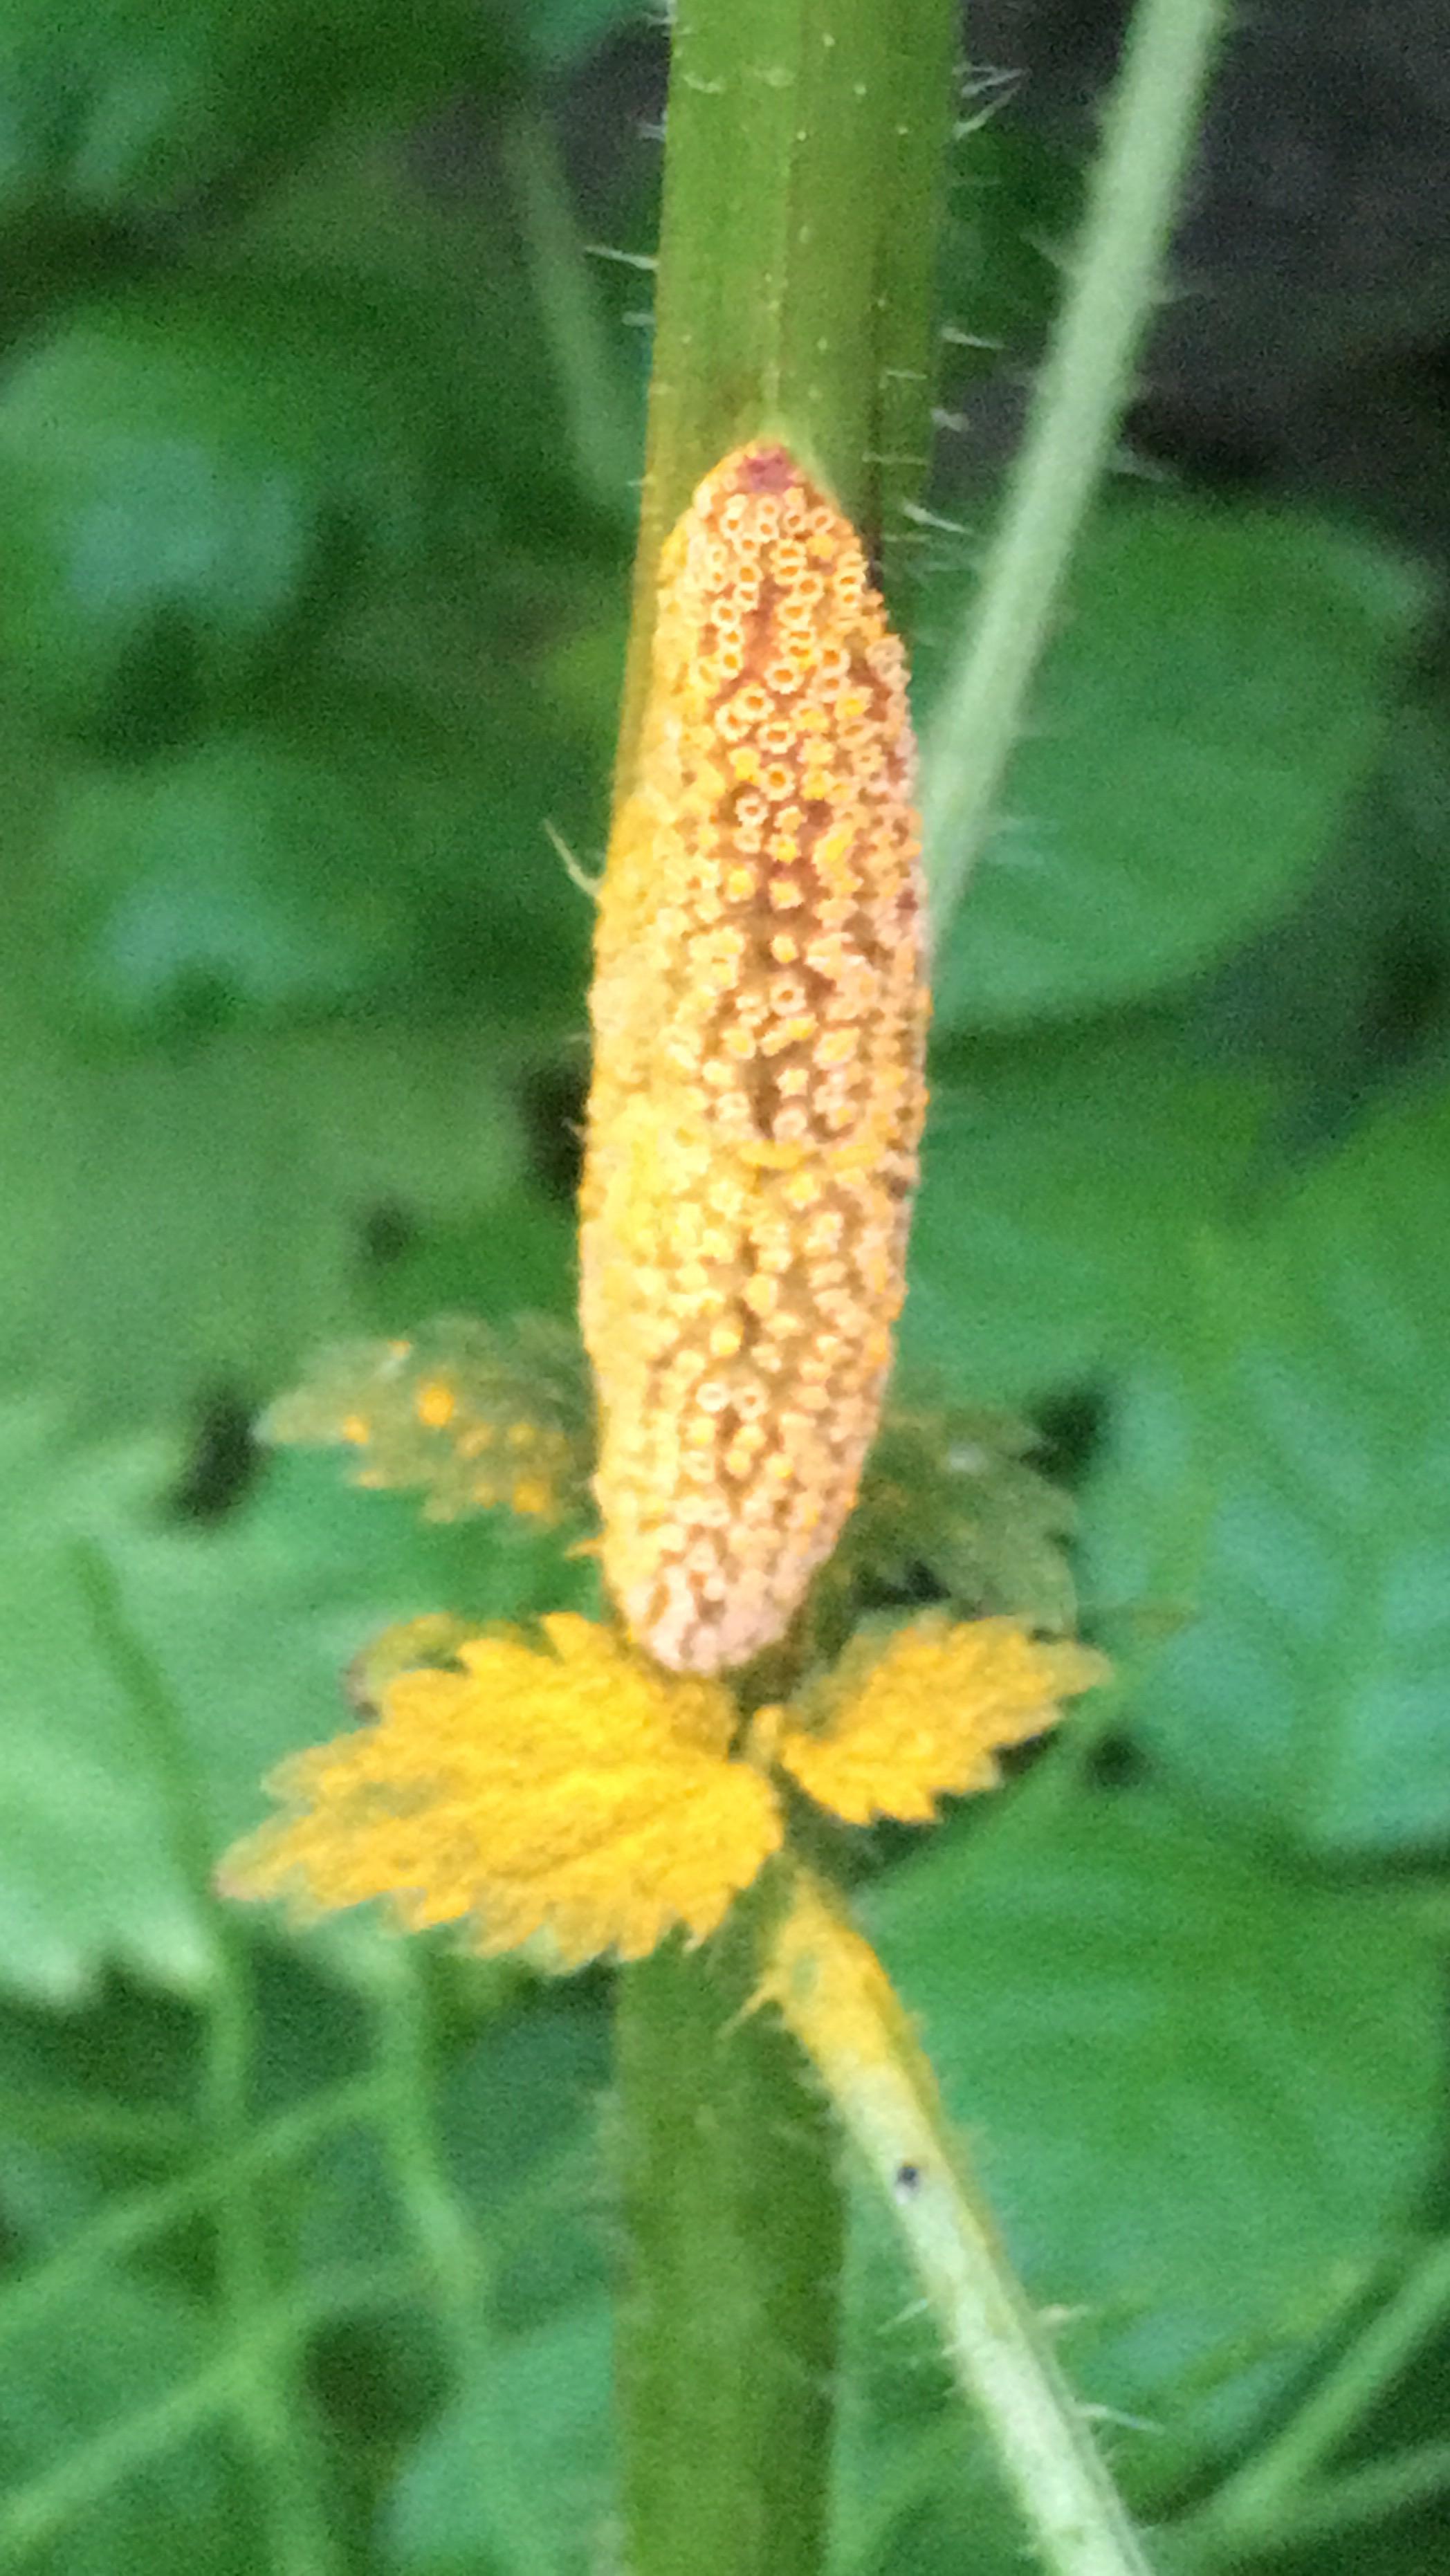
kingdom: Fungi
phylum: Basidiomycota
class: Pucciniomycetes
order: Pucciniales
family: Pucciniaceae
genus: Puccinia
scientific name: Puccinia urticata
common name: nældegalle-tvecellerust
